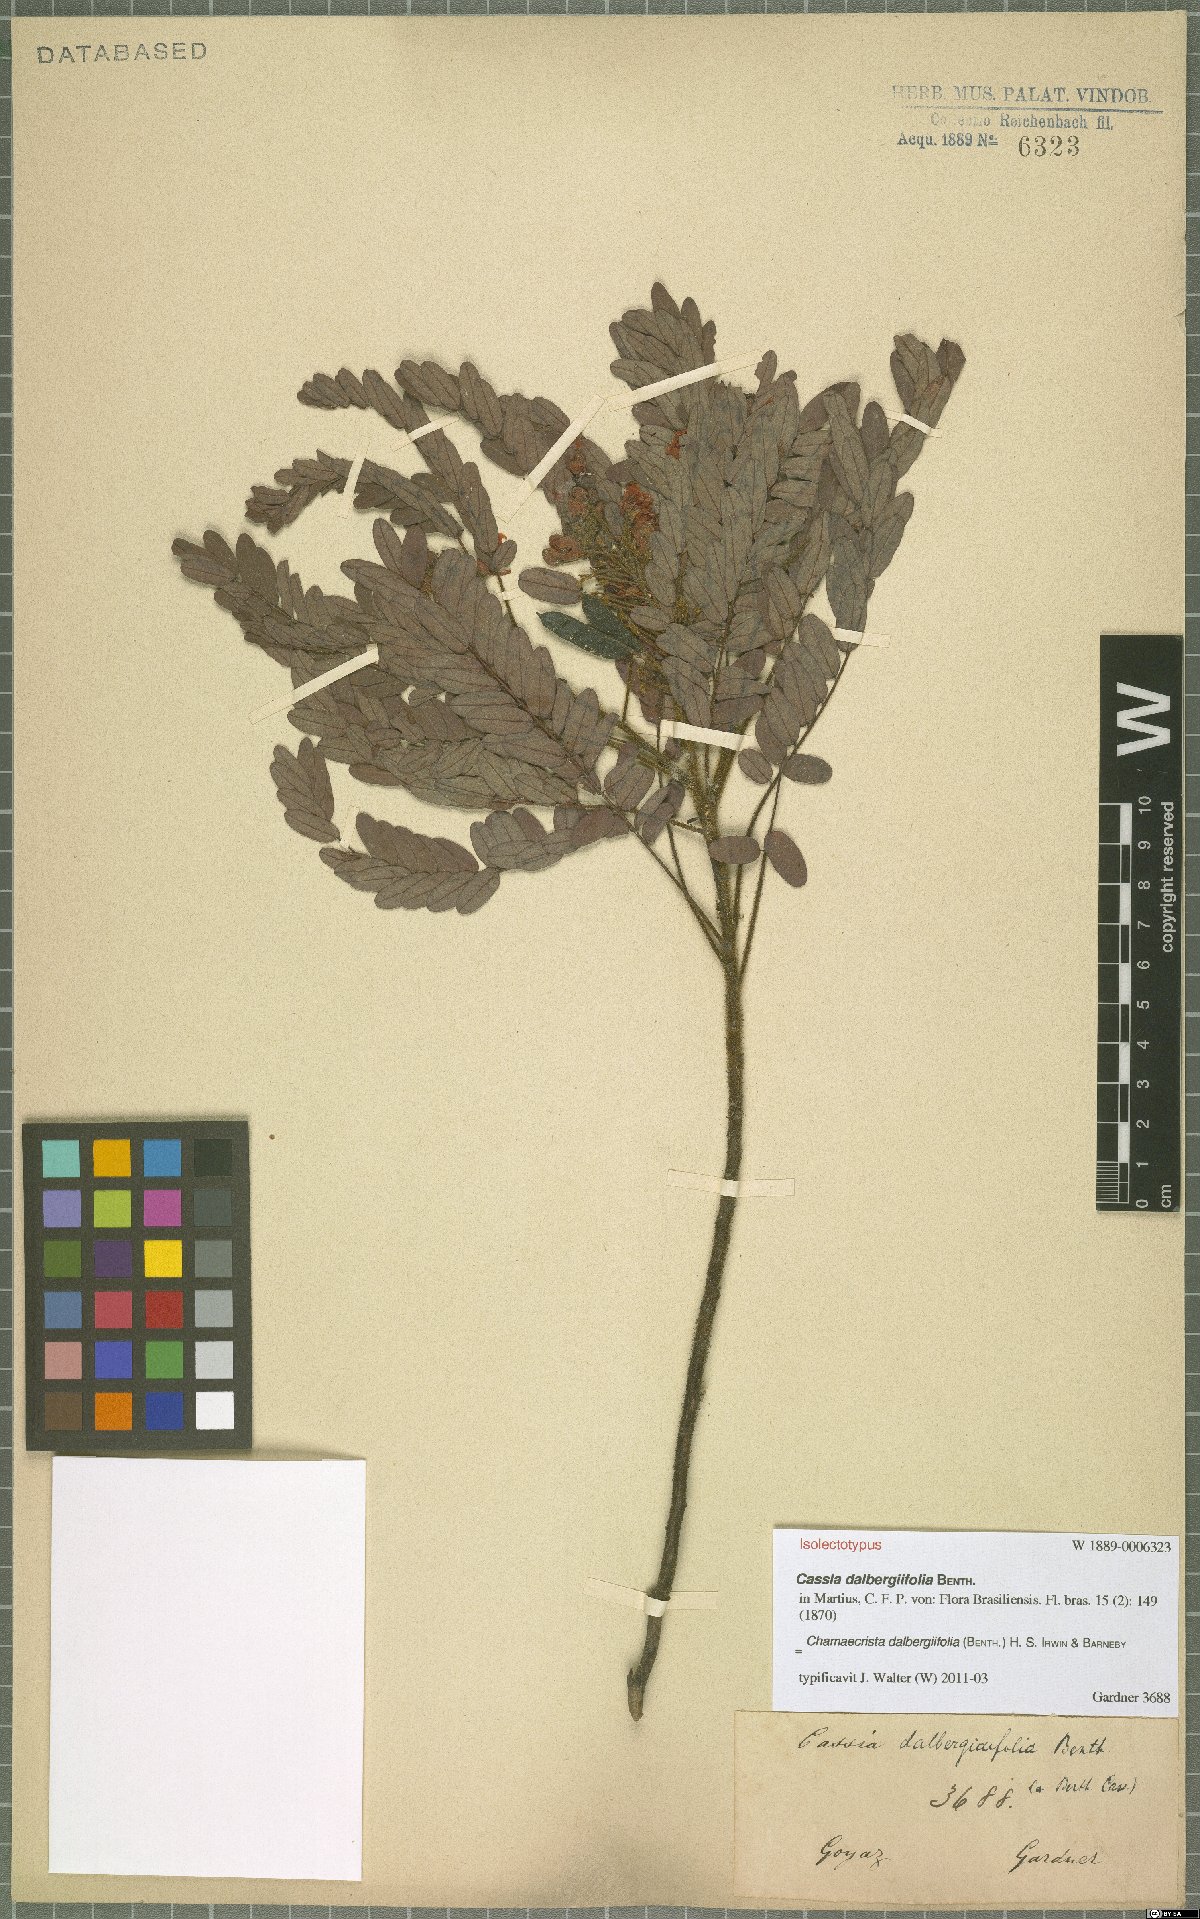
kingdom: Plantae
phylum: Tracheophyta
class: Magnoliopsida
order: Fabales
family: Fabaceae
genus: Chamaecrista
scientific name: Chamaecrista dalbergiifolia
